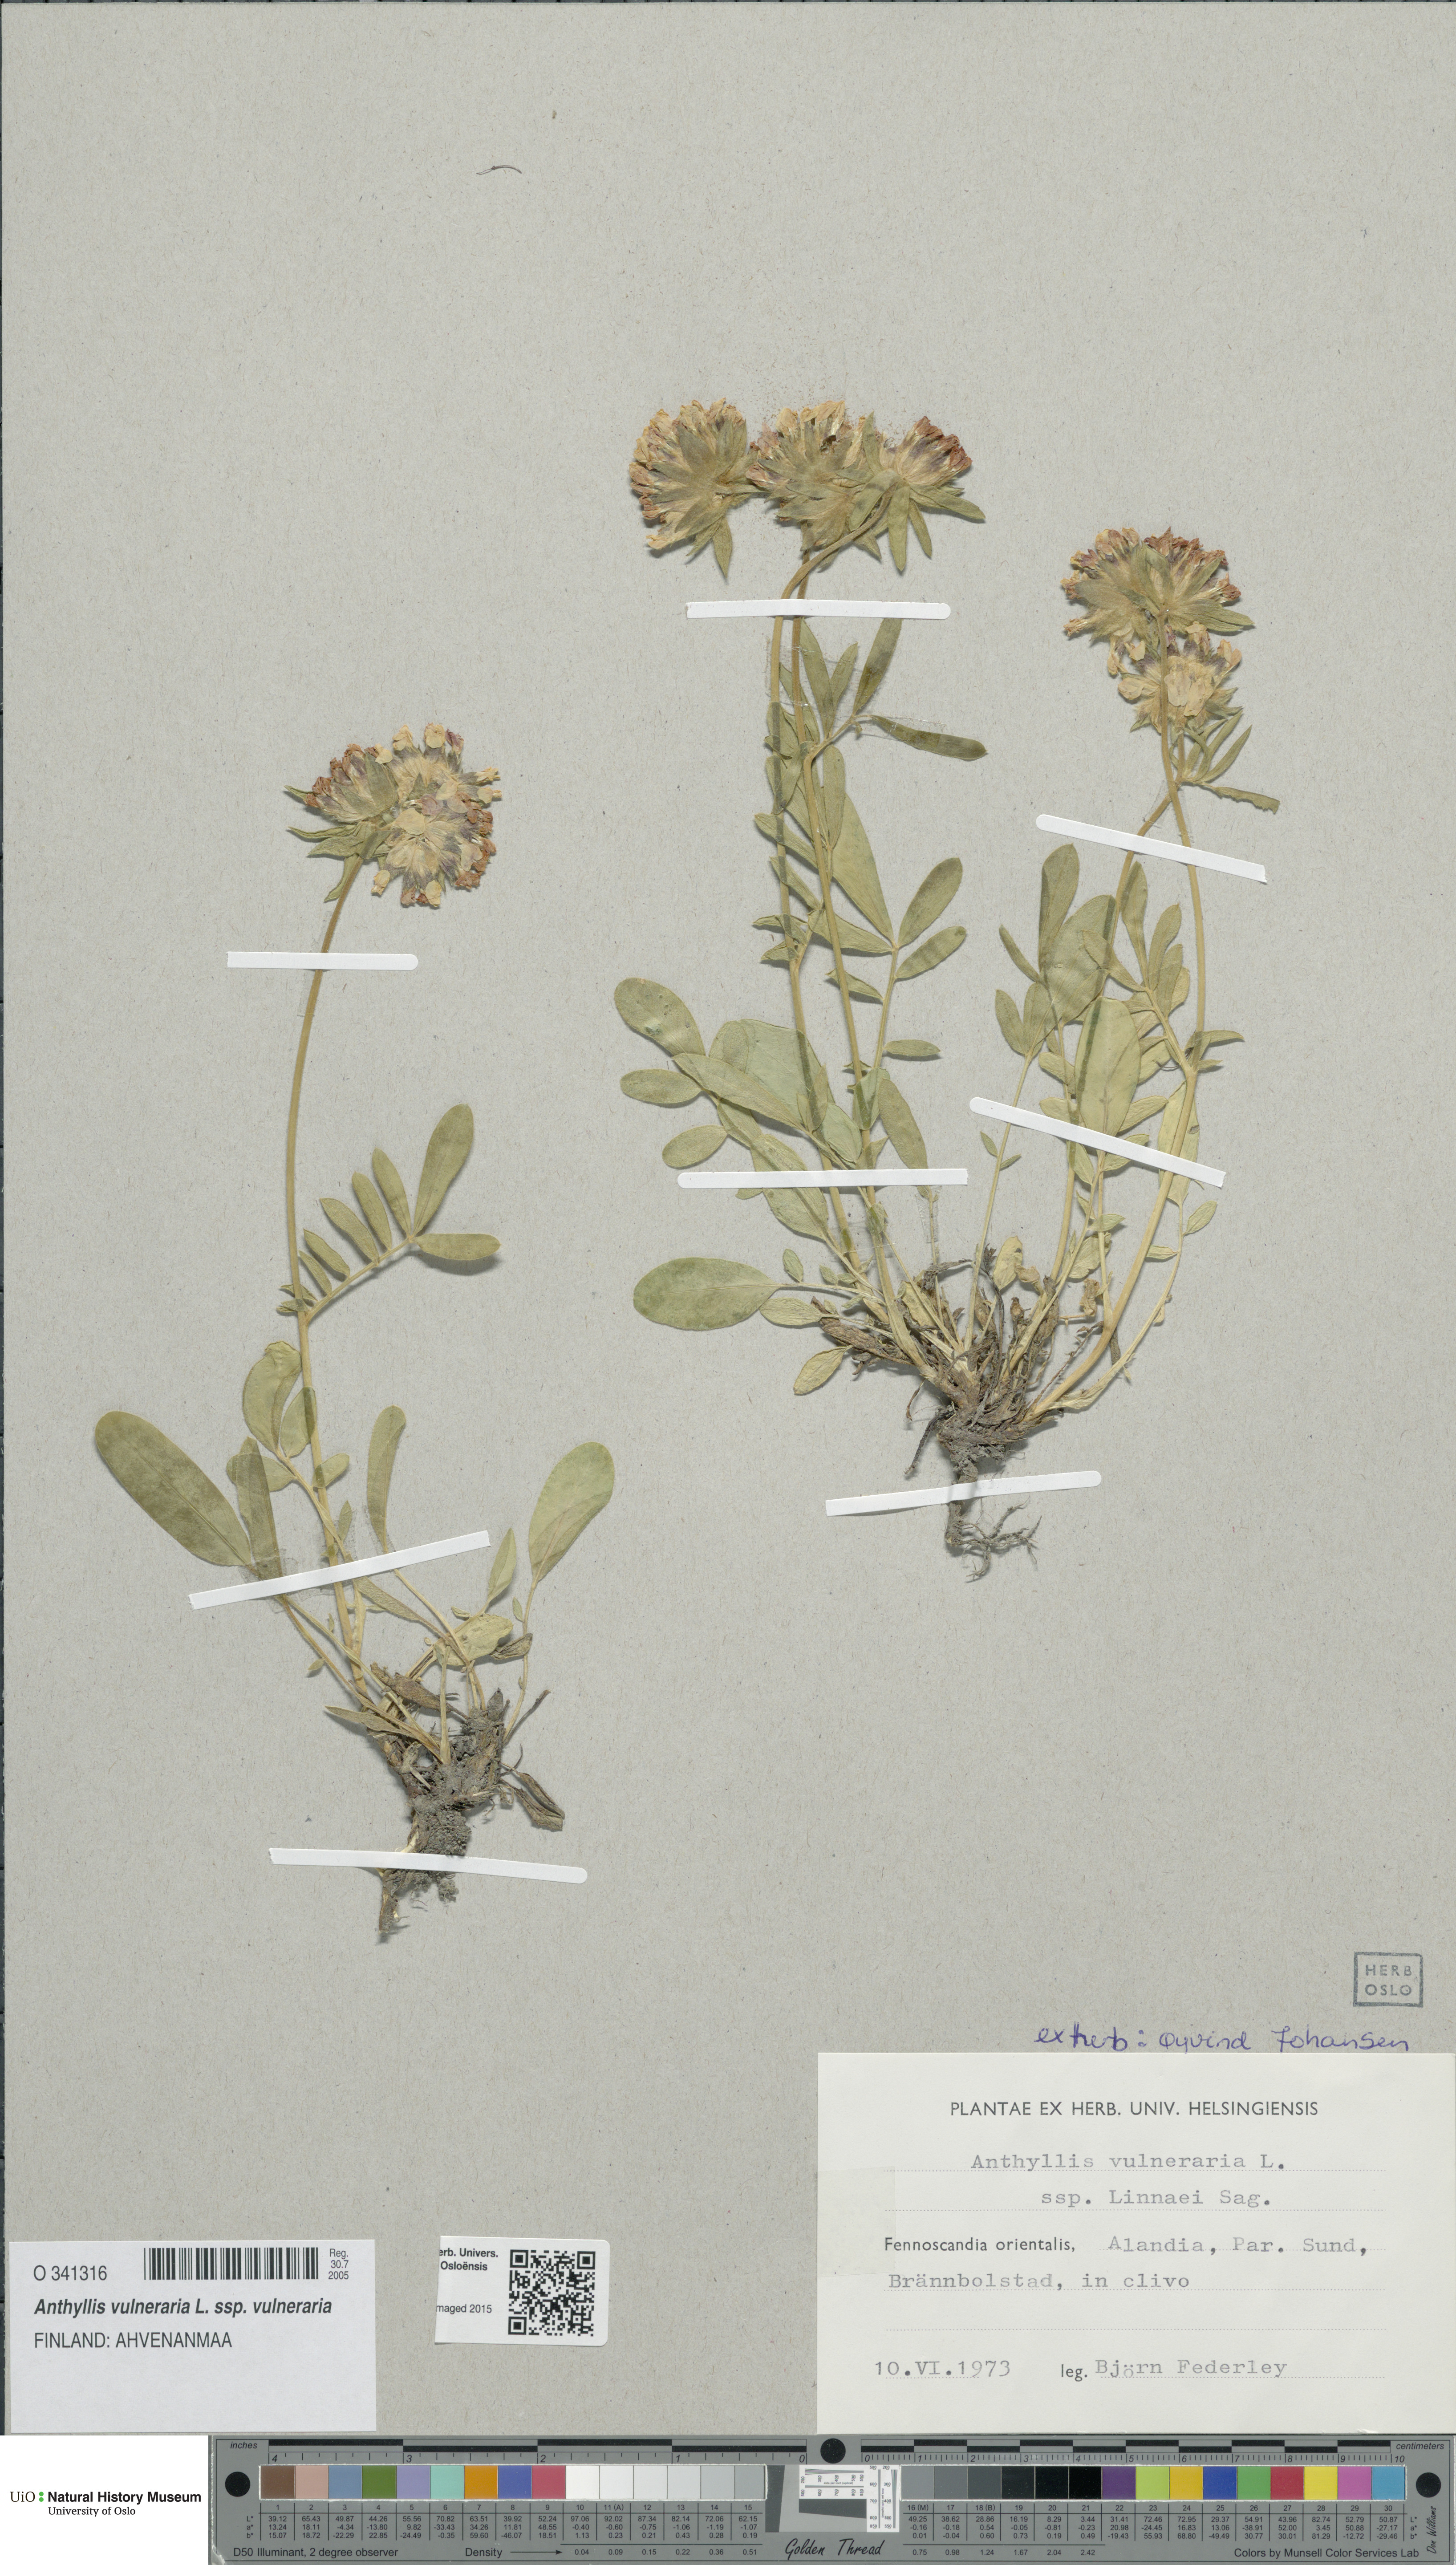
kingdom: Plantae
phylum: Tracheophyta
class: Magnoliopsida
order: Fabales
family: Fabaceae
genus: Anthyllis
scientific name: Anthyllis vulneraria
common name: Kidney vetch
